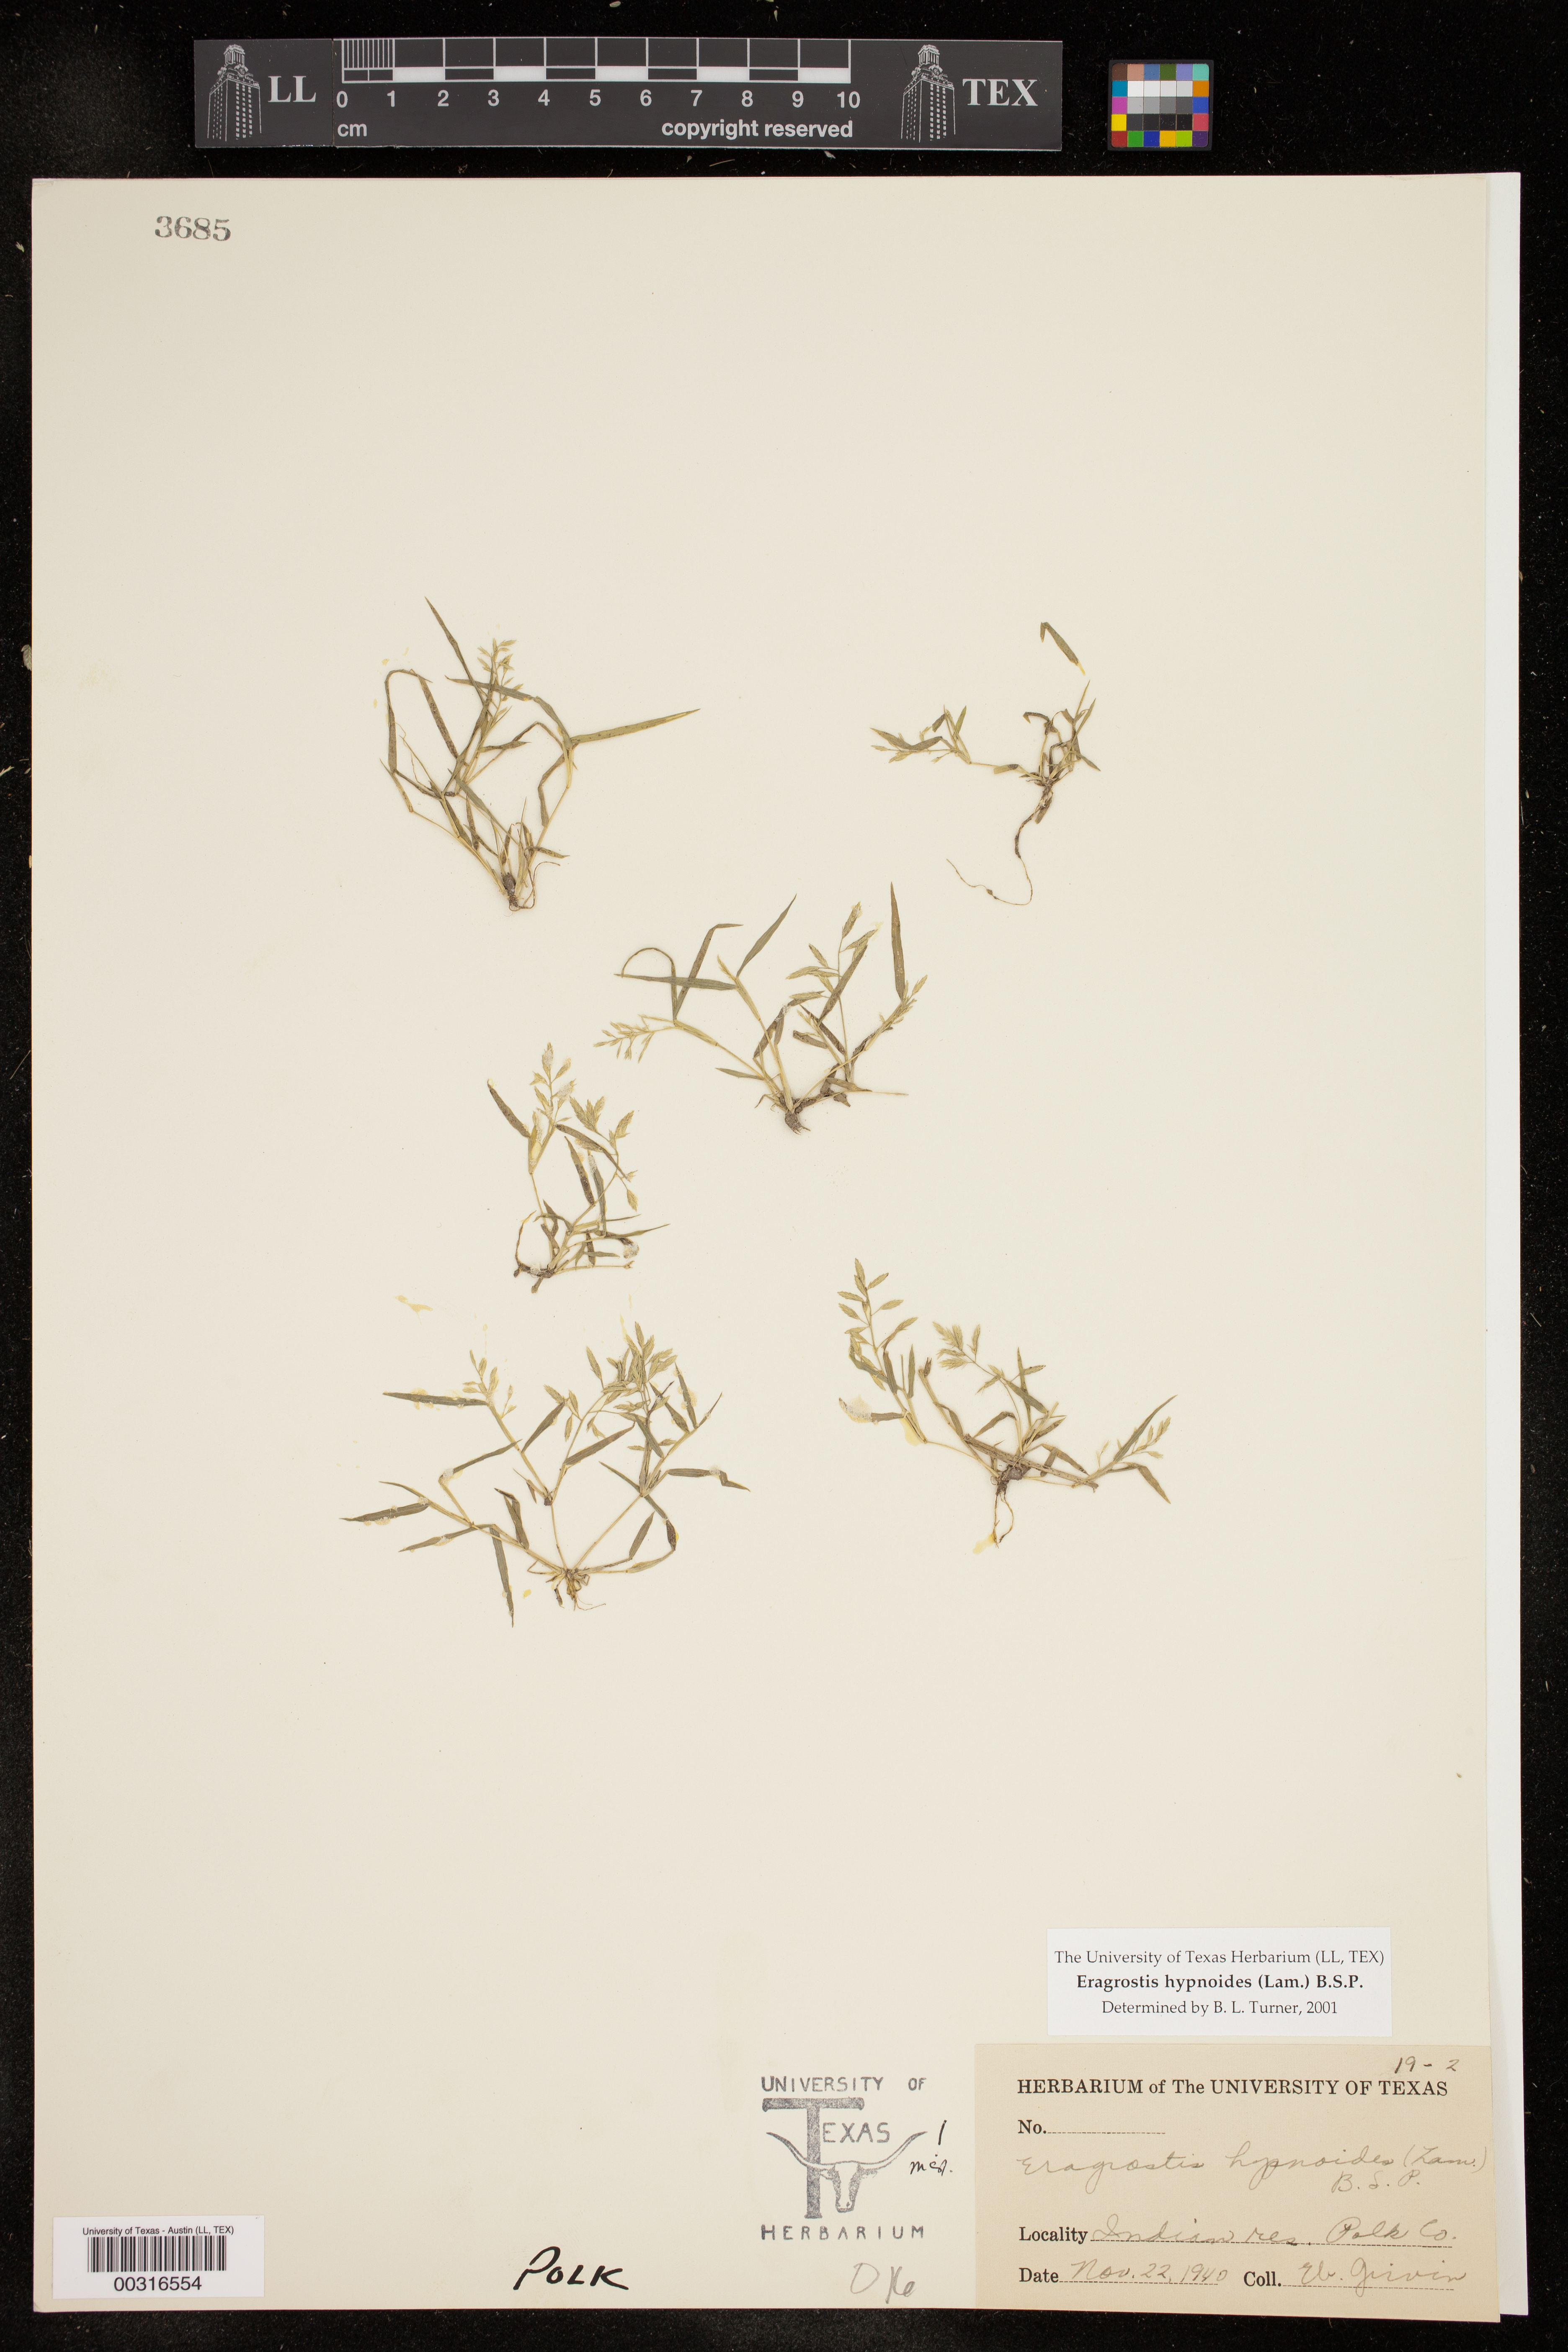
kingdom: Plantae
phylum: Tracheophyta
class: Liliopsida
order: Poales
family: Poaceae
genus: Eragrostis
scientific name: Eragrostis hypnoides
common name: Creeping love grass
